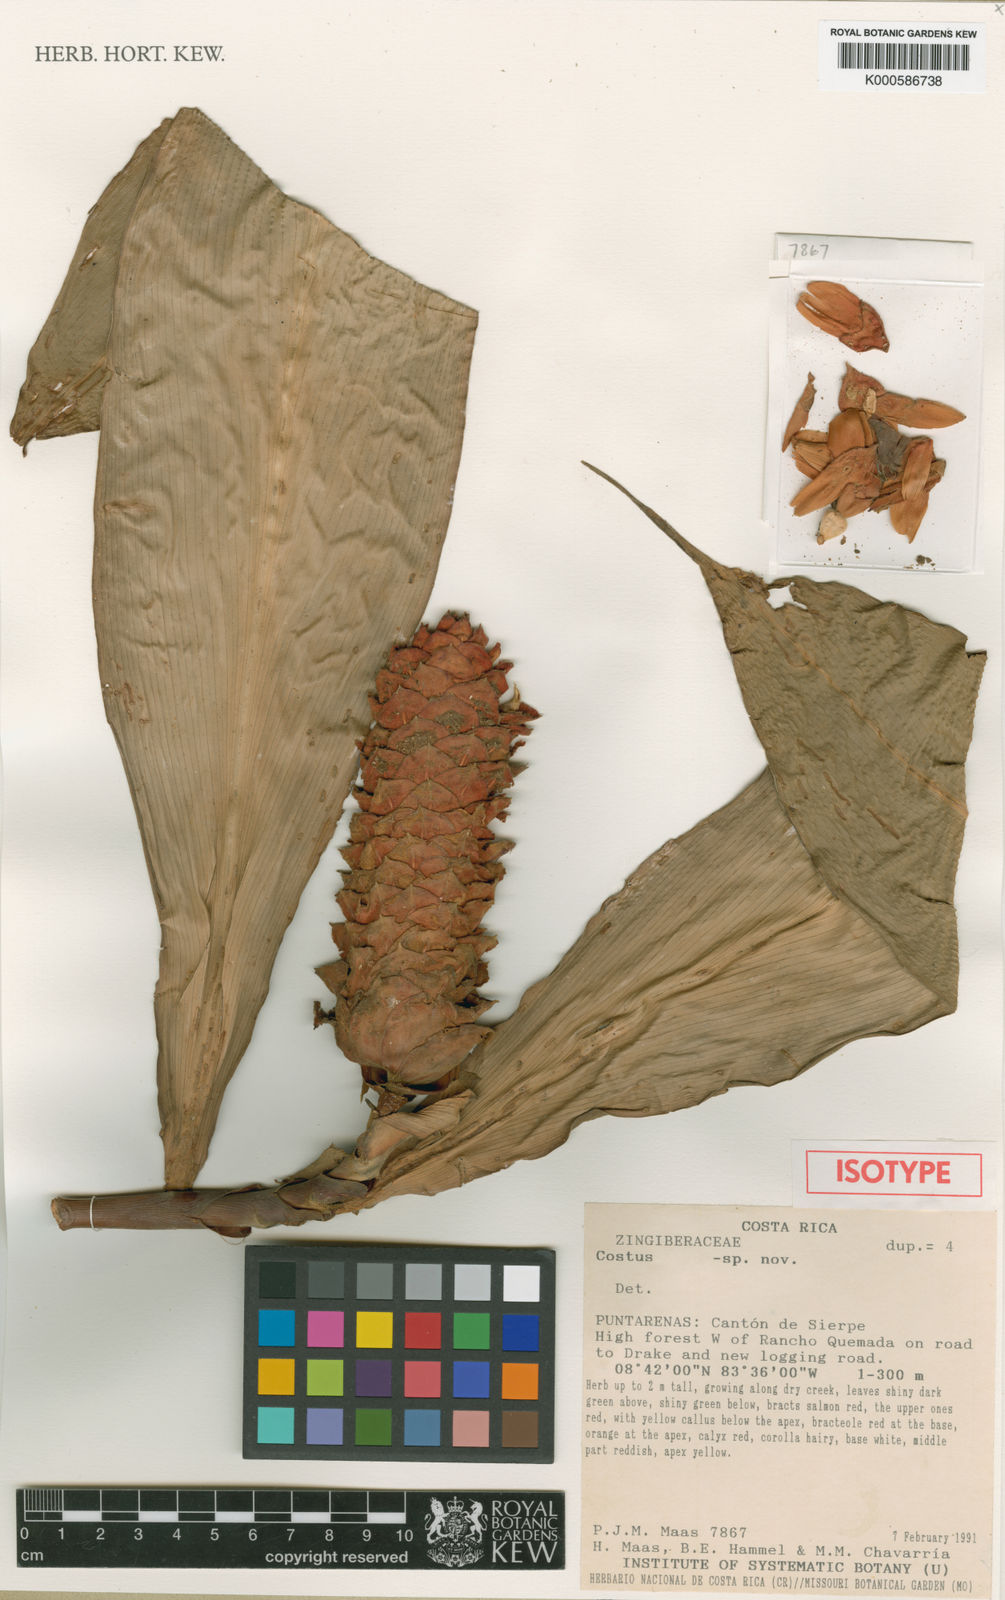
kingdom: Plantae
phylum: Tracheophyta
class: Liliopsida
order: Zingiberales
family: Costaceae
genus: Costus
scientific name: Costus
